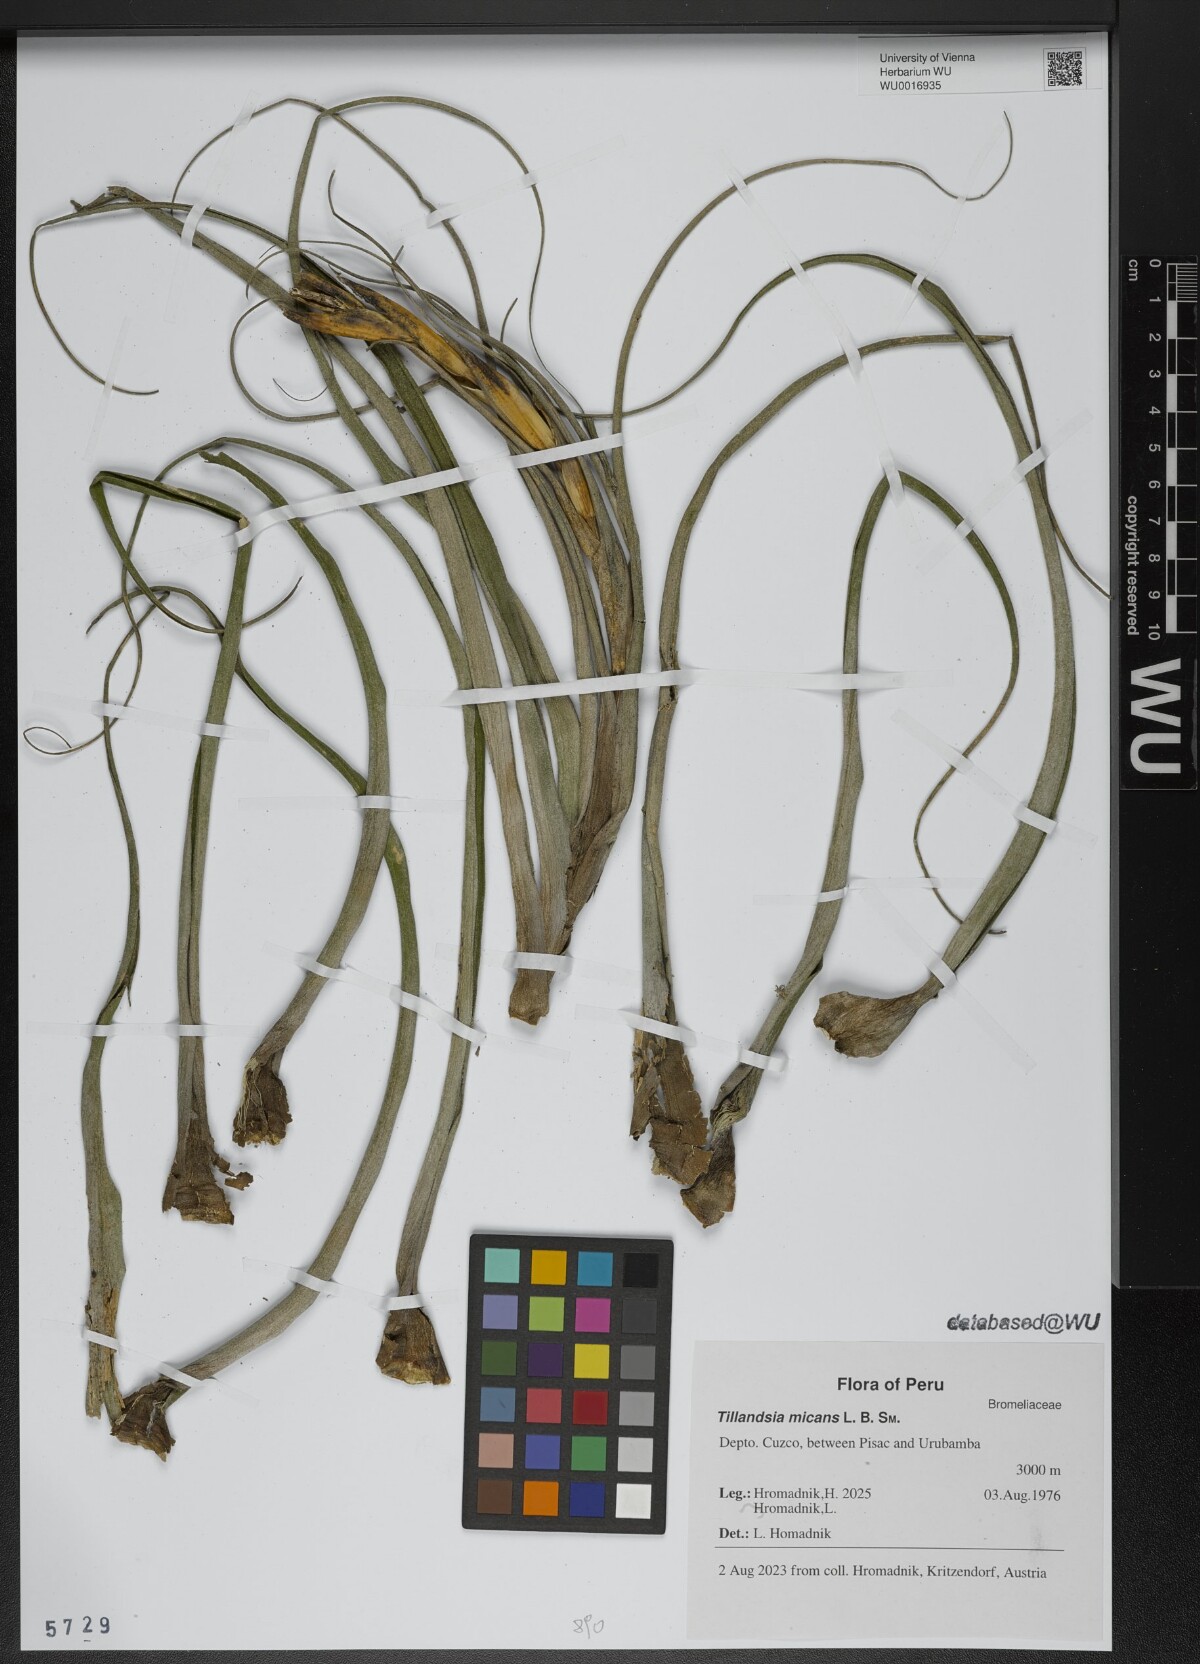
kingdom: Plantae
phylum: Tracheophyta
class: Liliopsida
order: Poales
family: Bromeliaceae
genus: Tillandsia
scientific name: Tillandsia micans
